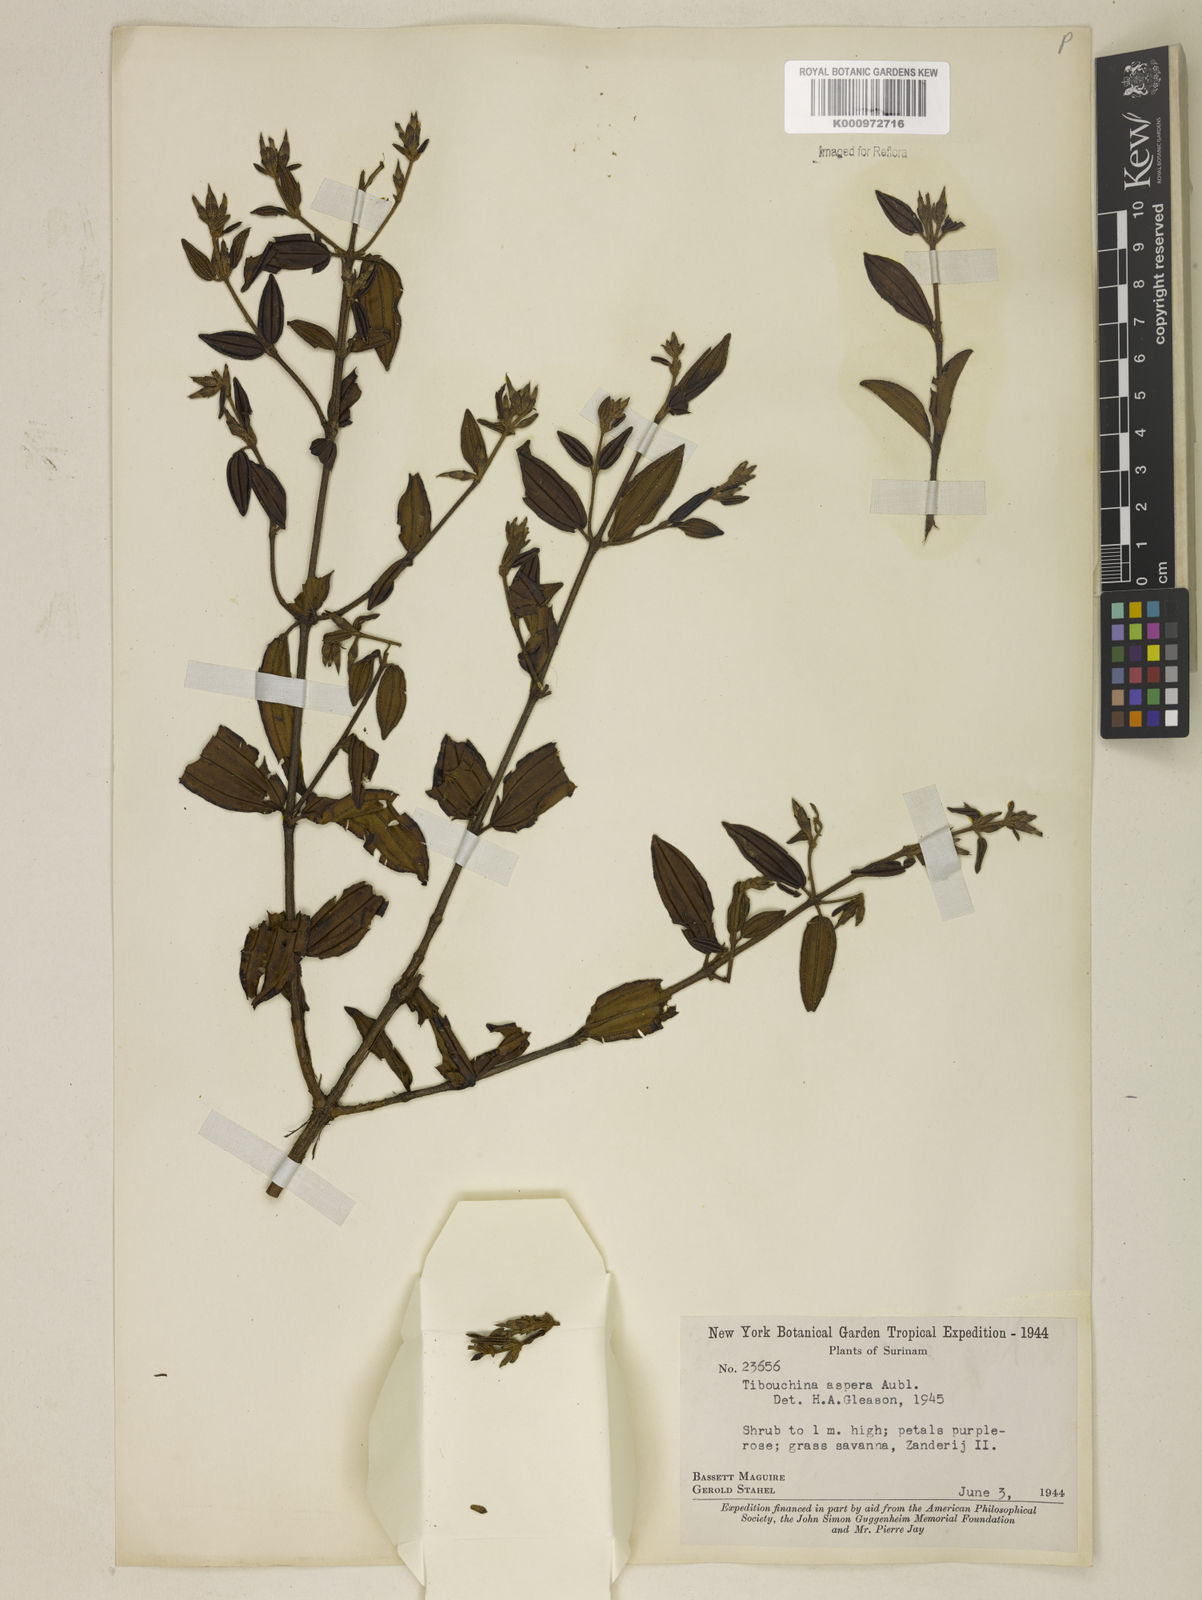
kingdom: Plantae
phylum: Tracheophyta
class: Magnoliopsida
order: Myrtales
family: Melastomataceae
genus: Tibouchina
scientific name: Tibouchina aspera
